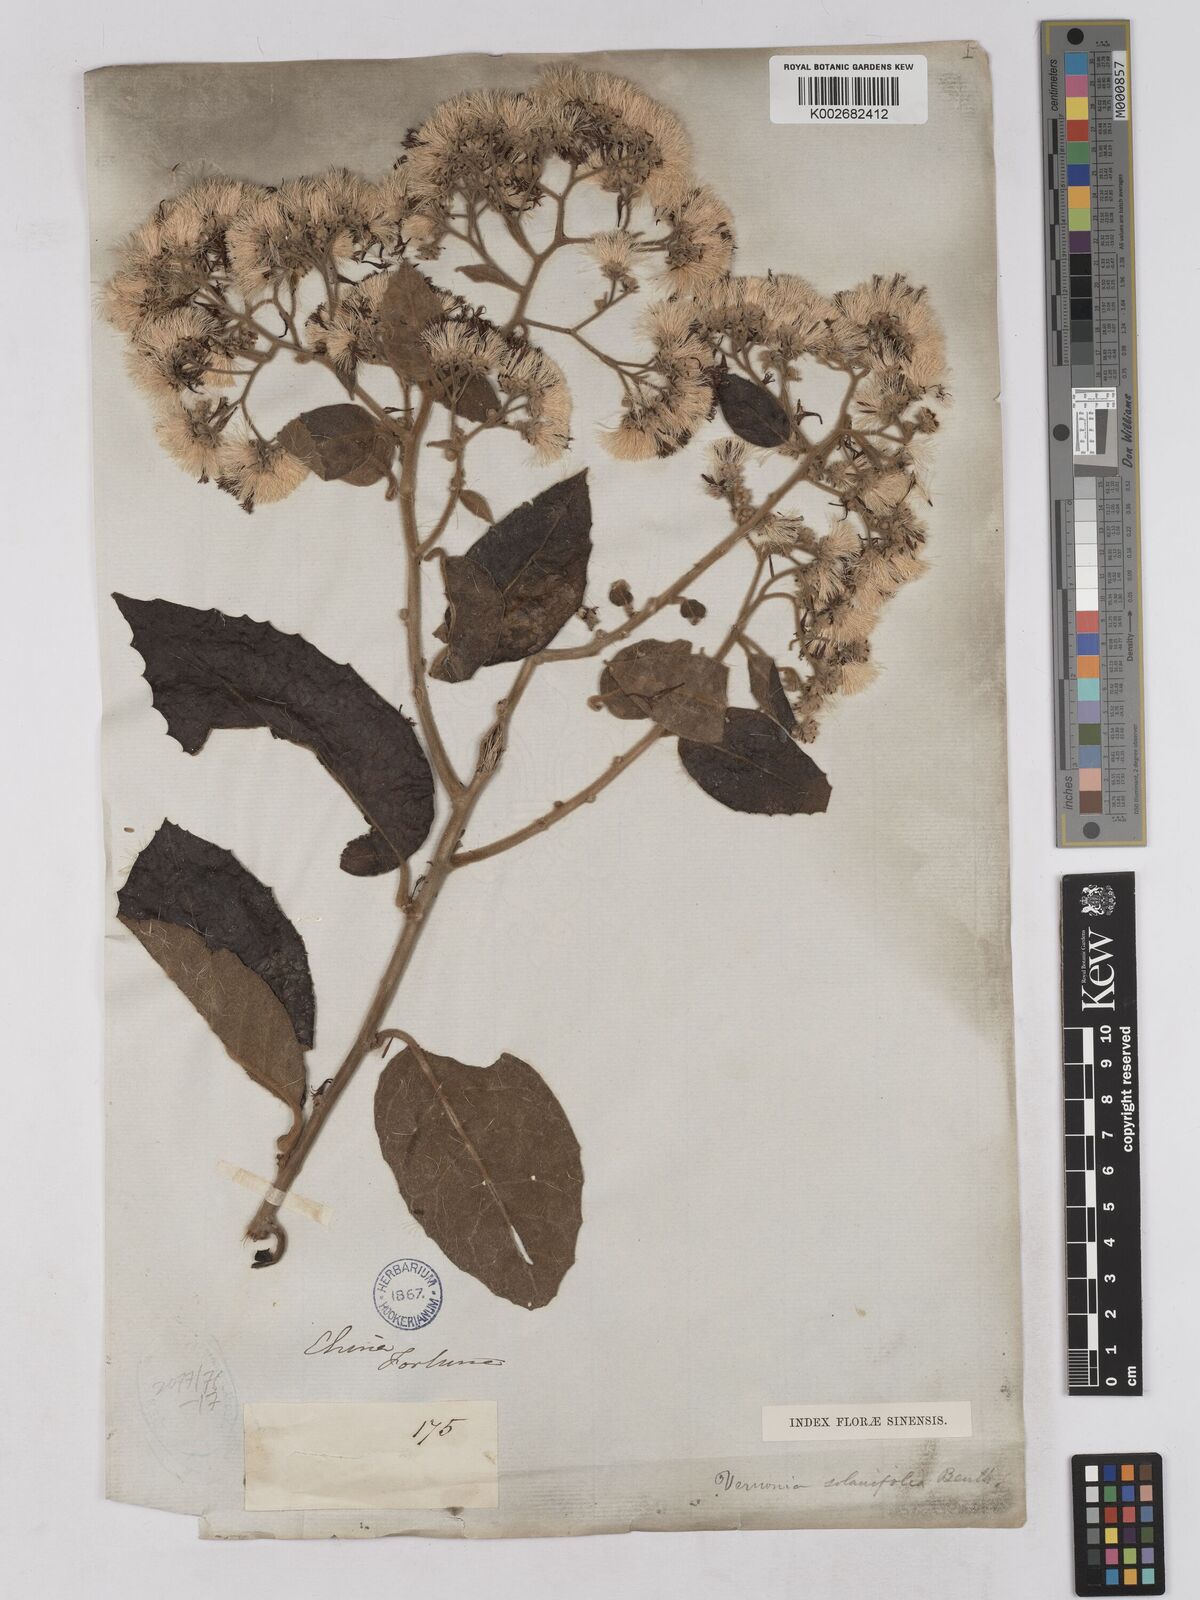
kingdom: Plantae
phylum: Tracheophyta
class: Magnoliopsida
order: Asterales
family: Asteraceae
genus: Strobocalyx
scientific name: Strobocalyx solanifolia
